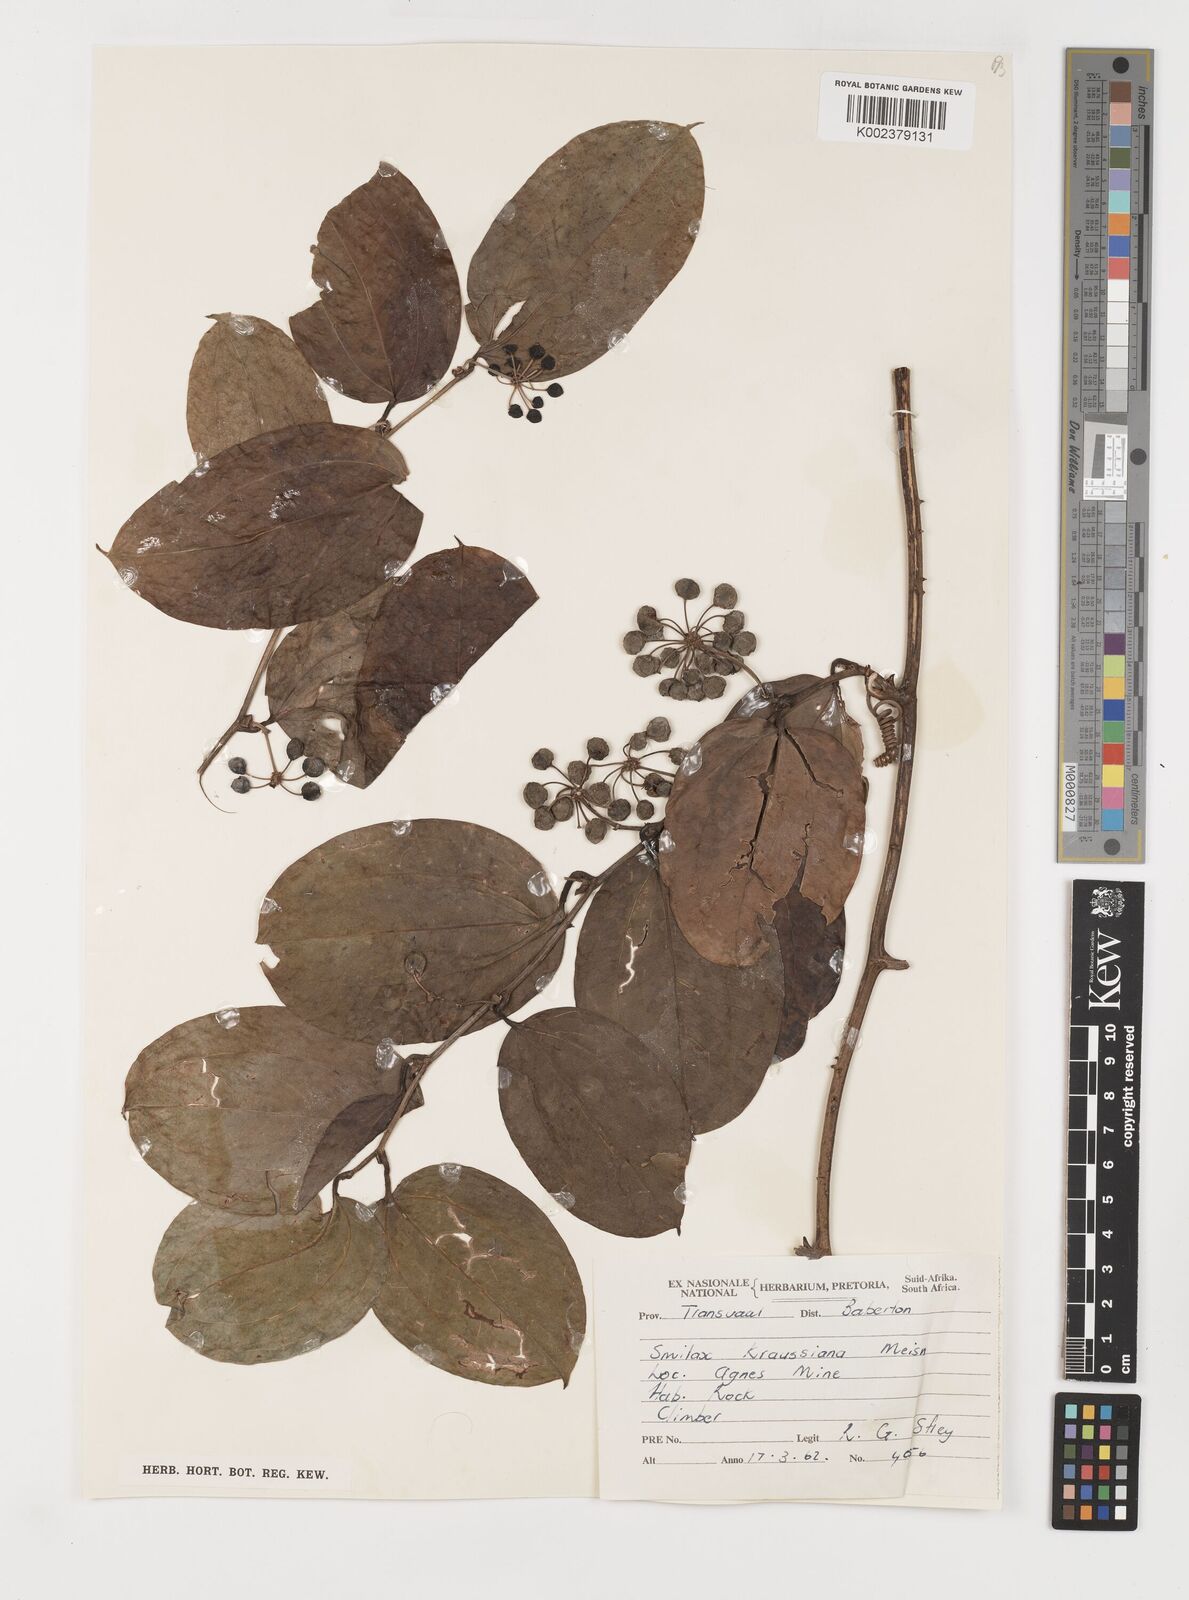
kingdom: Plantae
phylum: Tracheophyta
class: Liliopsida
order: Liliales
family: Smilacaceae
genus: Smilax
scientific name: Smilax anceps
